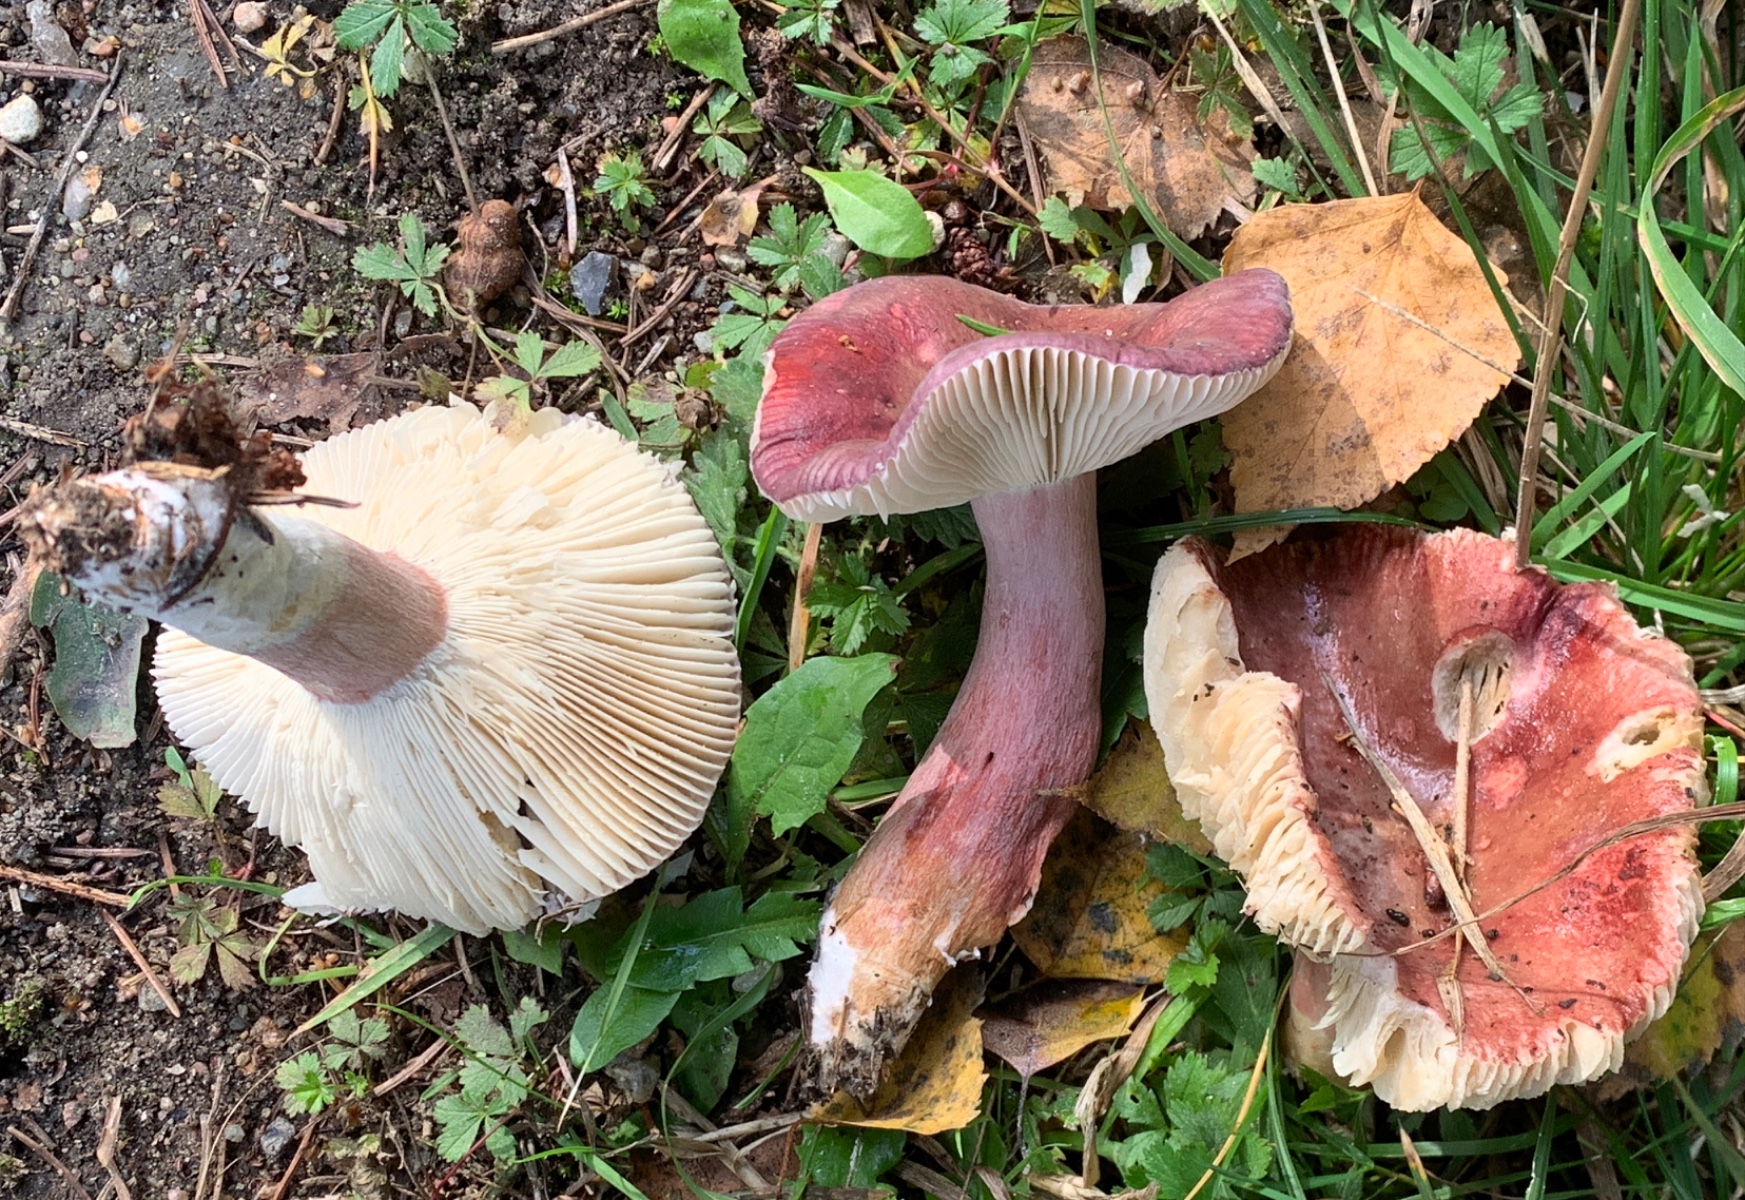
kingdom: Fungi
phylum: Basidiomycota
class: Agaricomycetes
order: Russulales
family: Russulaceae
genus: Russula
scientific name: Russula queletii
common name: Quélets skørhat
